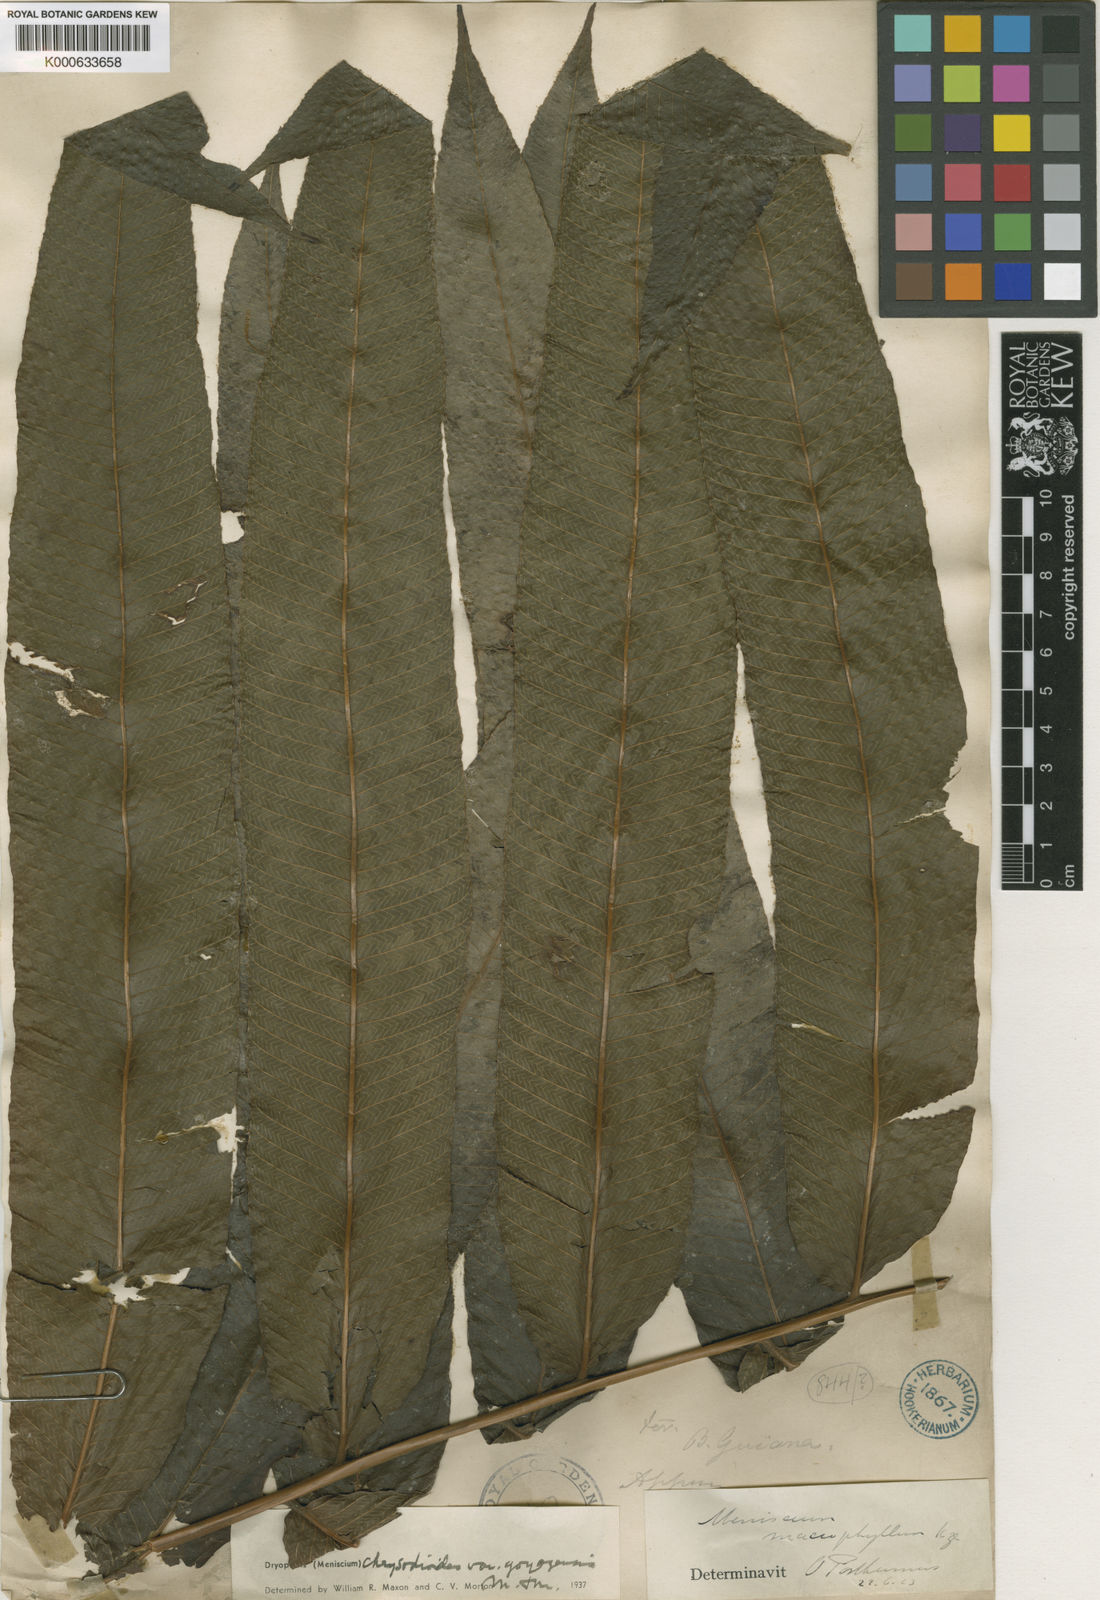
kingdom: Plantae
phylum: Tracheophyta
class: Polypodiopsida
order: Polypodiales
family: Thelypteridaceae
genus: Meniscium
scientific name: Meniscium
